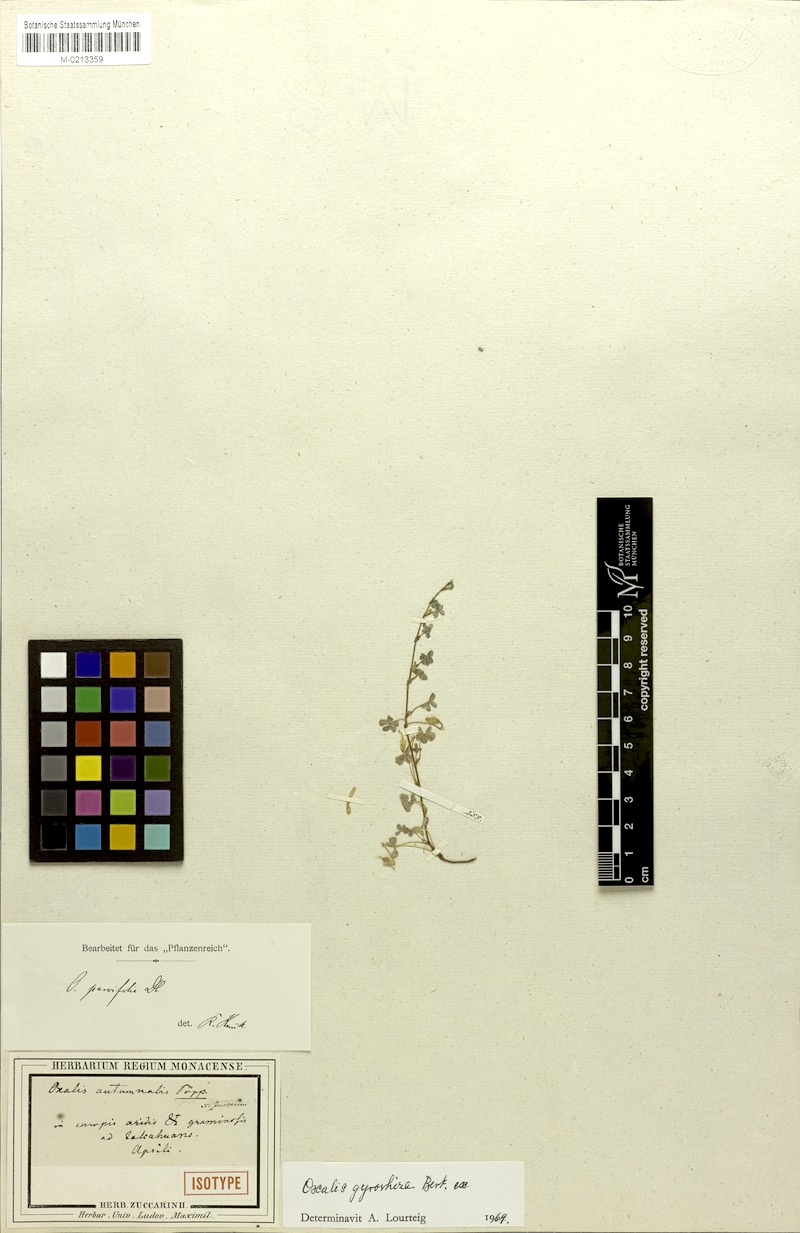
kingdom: Plantae
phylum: Tracheophyta
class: Magnoliopsida
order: Oxalidales
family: Oxalidaceae
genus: Oxalis
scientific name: Oxalis gyrorhiza
